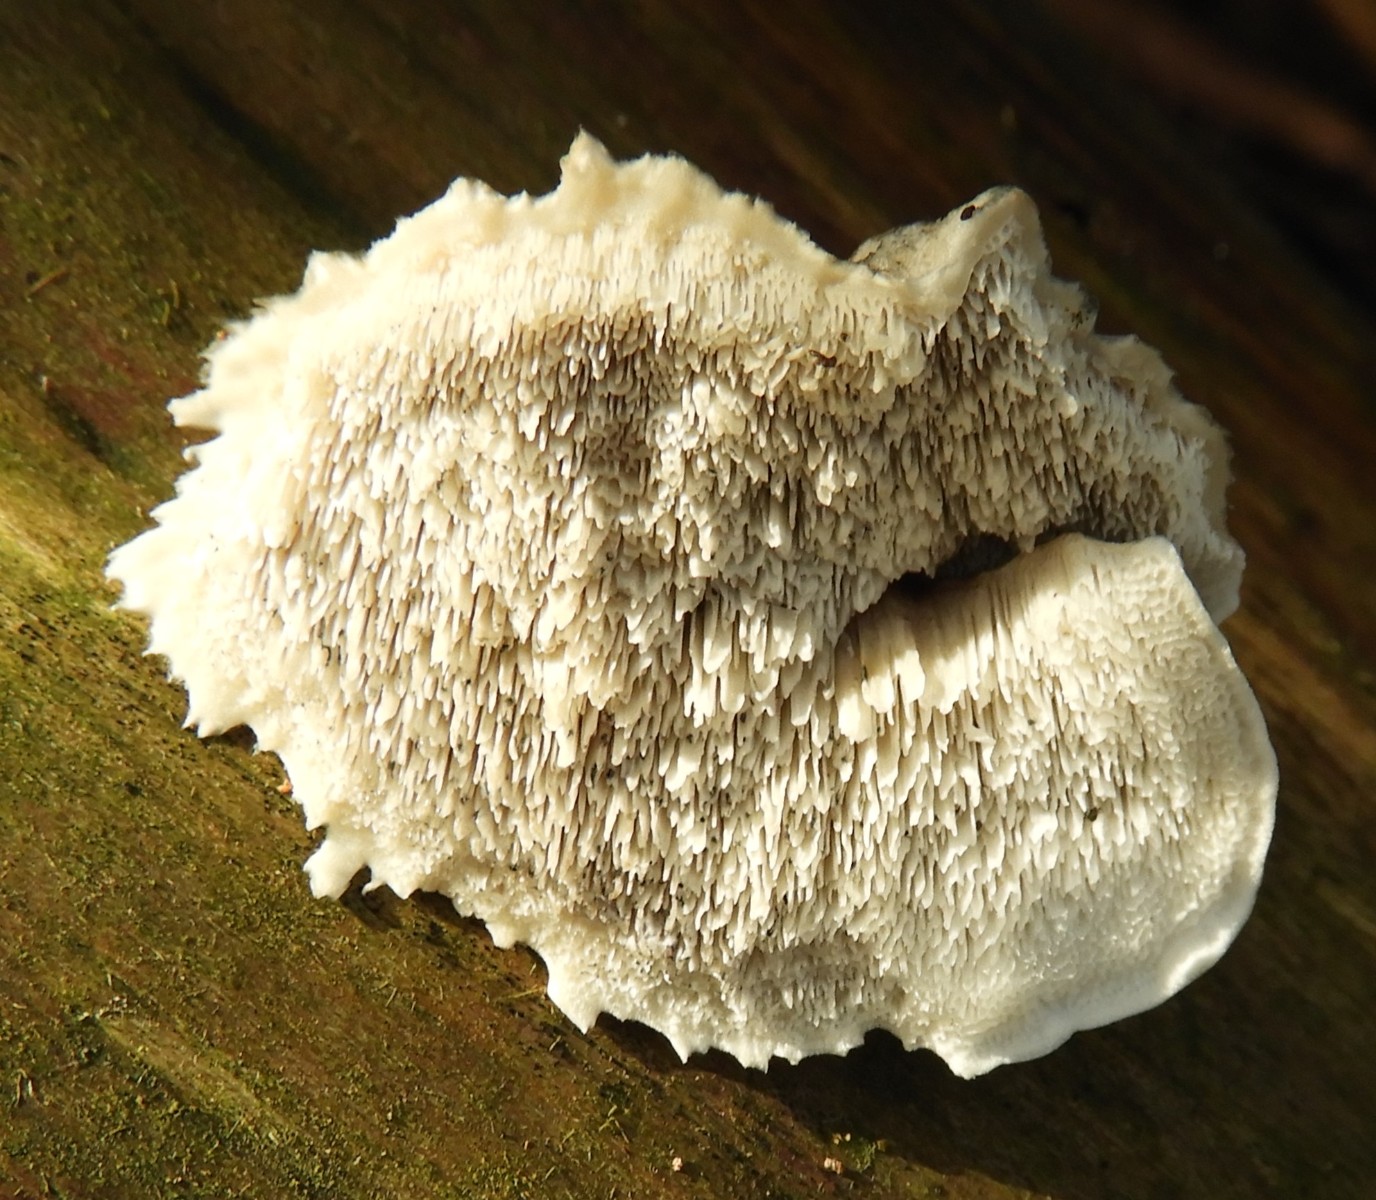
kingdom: Fungi
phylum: Basidiomycota
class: Agaricomycetes
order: Polyporales
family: Polyporaceae
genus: Cyanosporus
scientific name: Cyanosporus caesius
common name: blålig kødporesvamp
